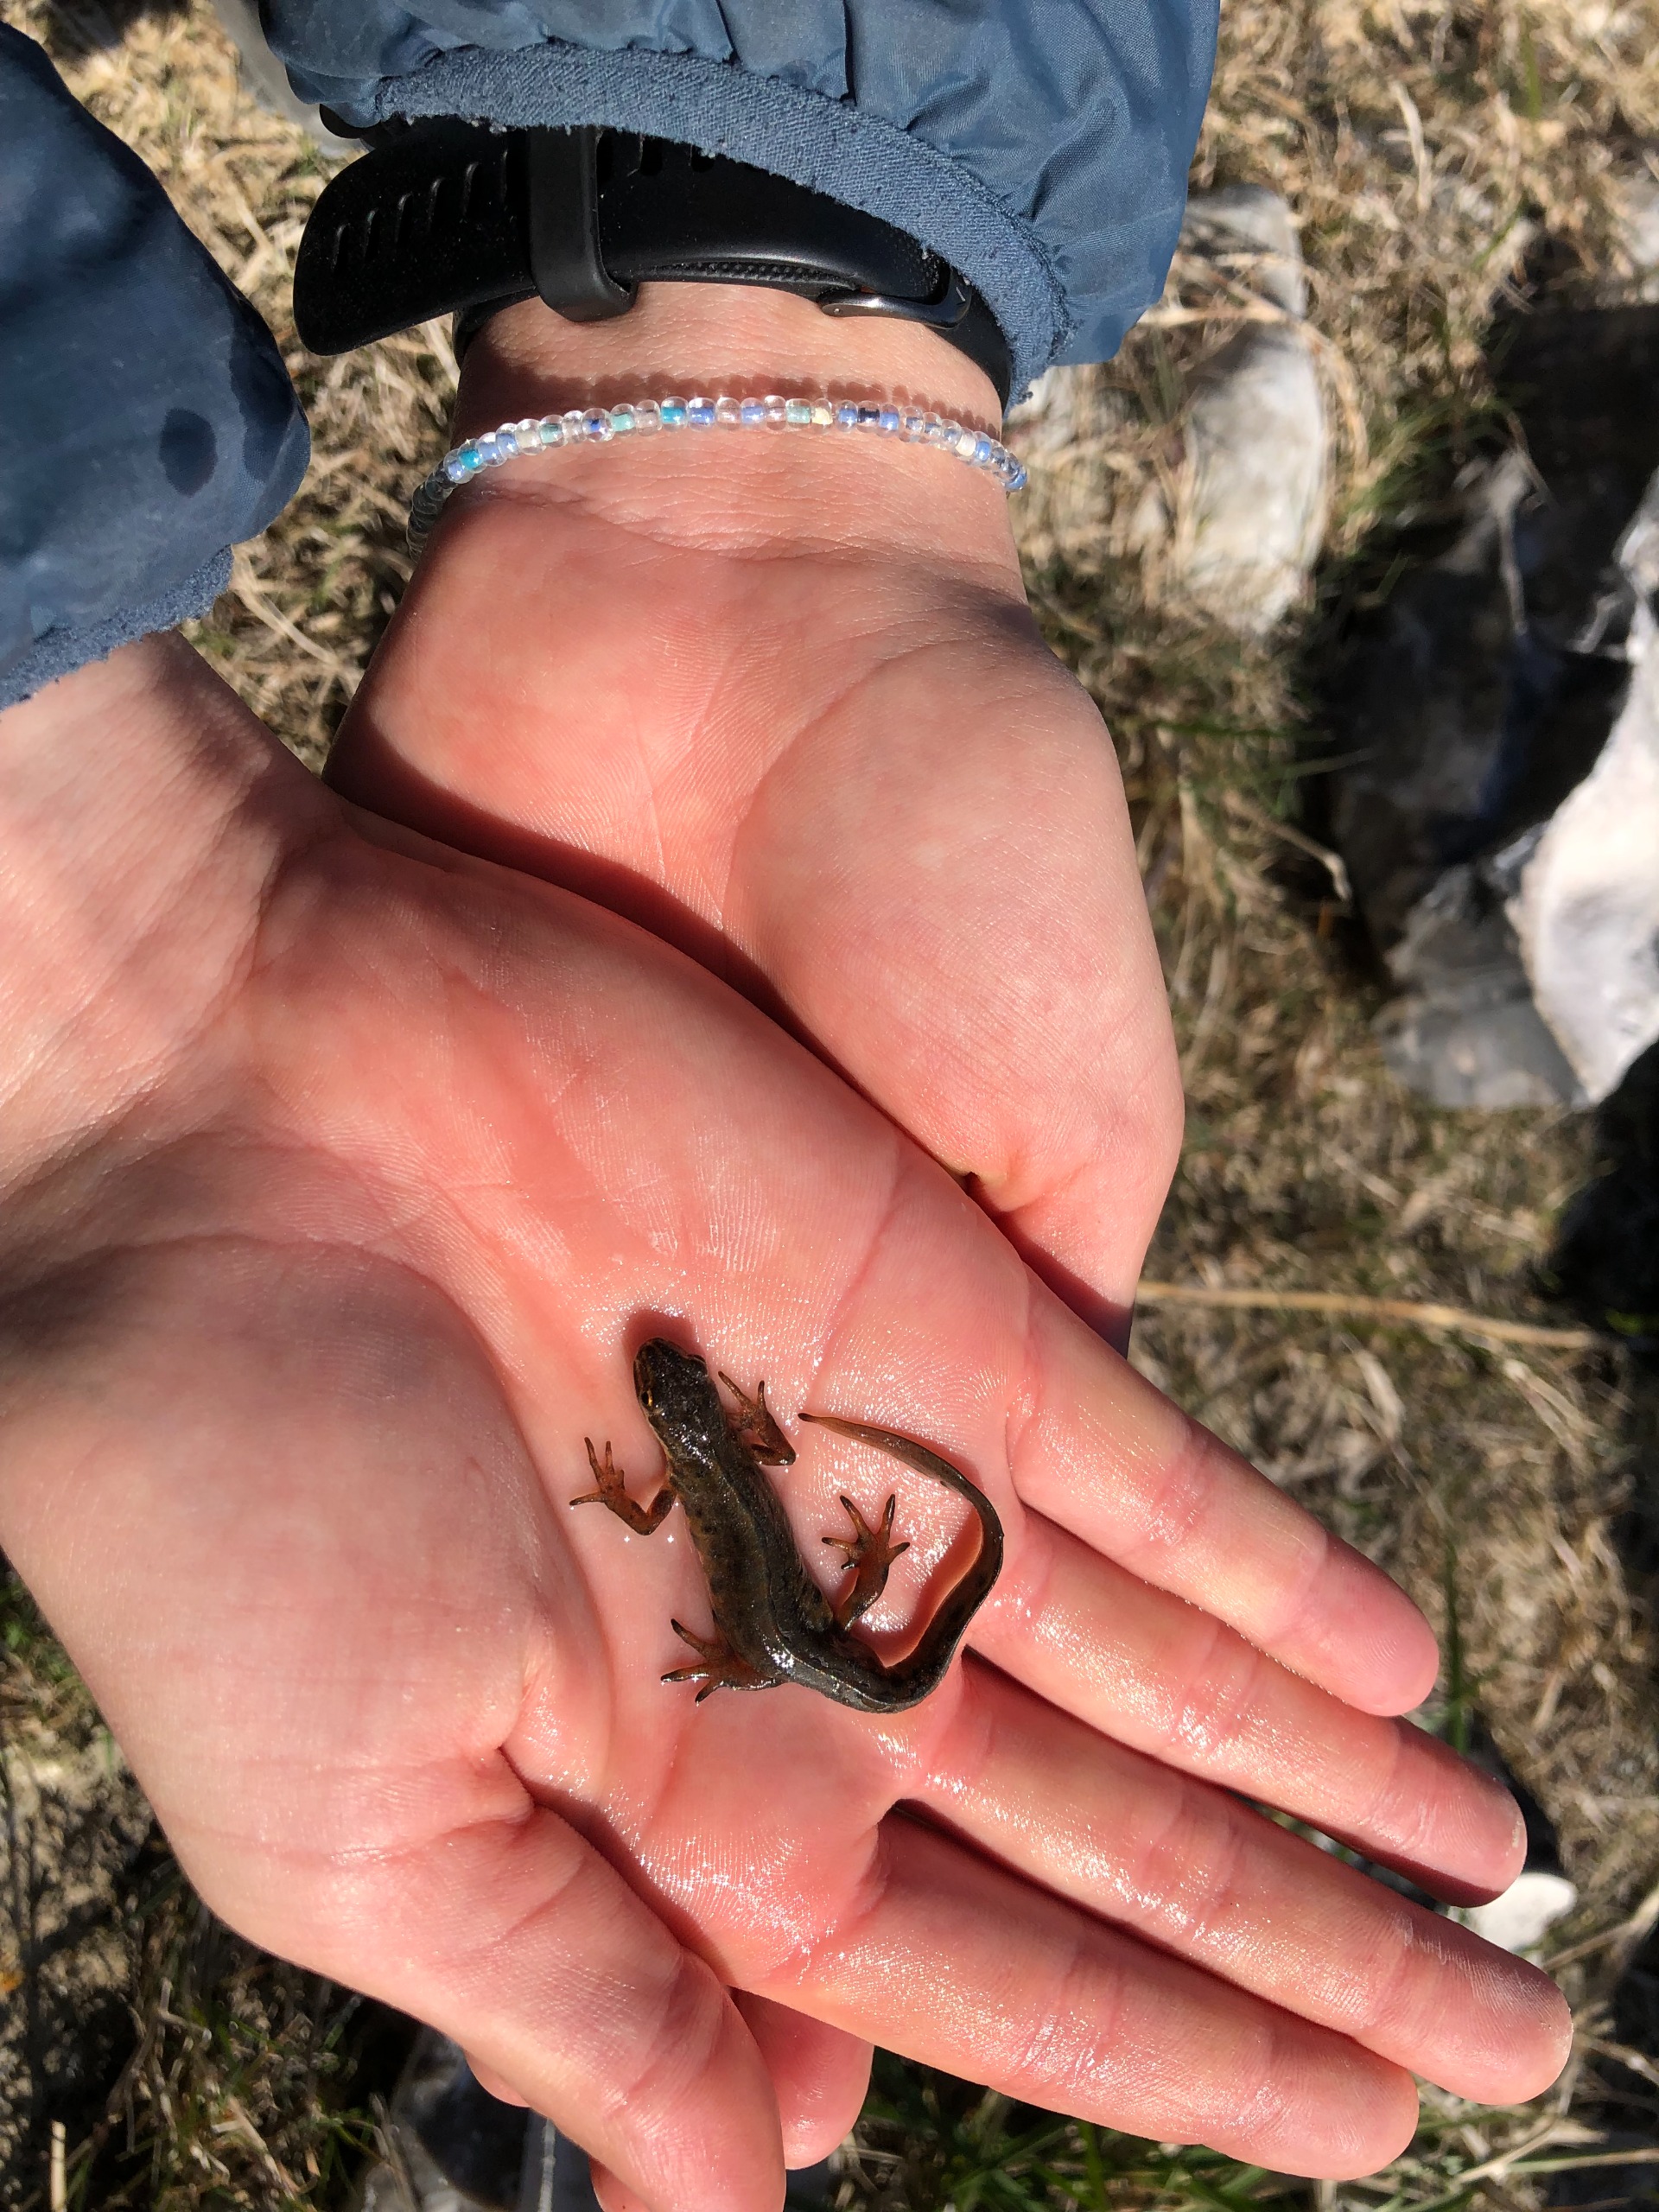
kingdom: Animalia
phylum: Chordata
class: Amphibia
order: Caudata
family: Salamandridae
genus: Lissotriton
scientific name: Lissotriton vulgaris
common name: Lille vandsalamander
